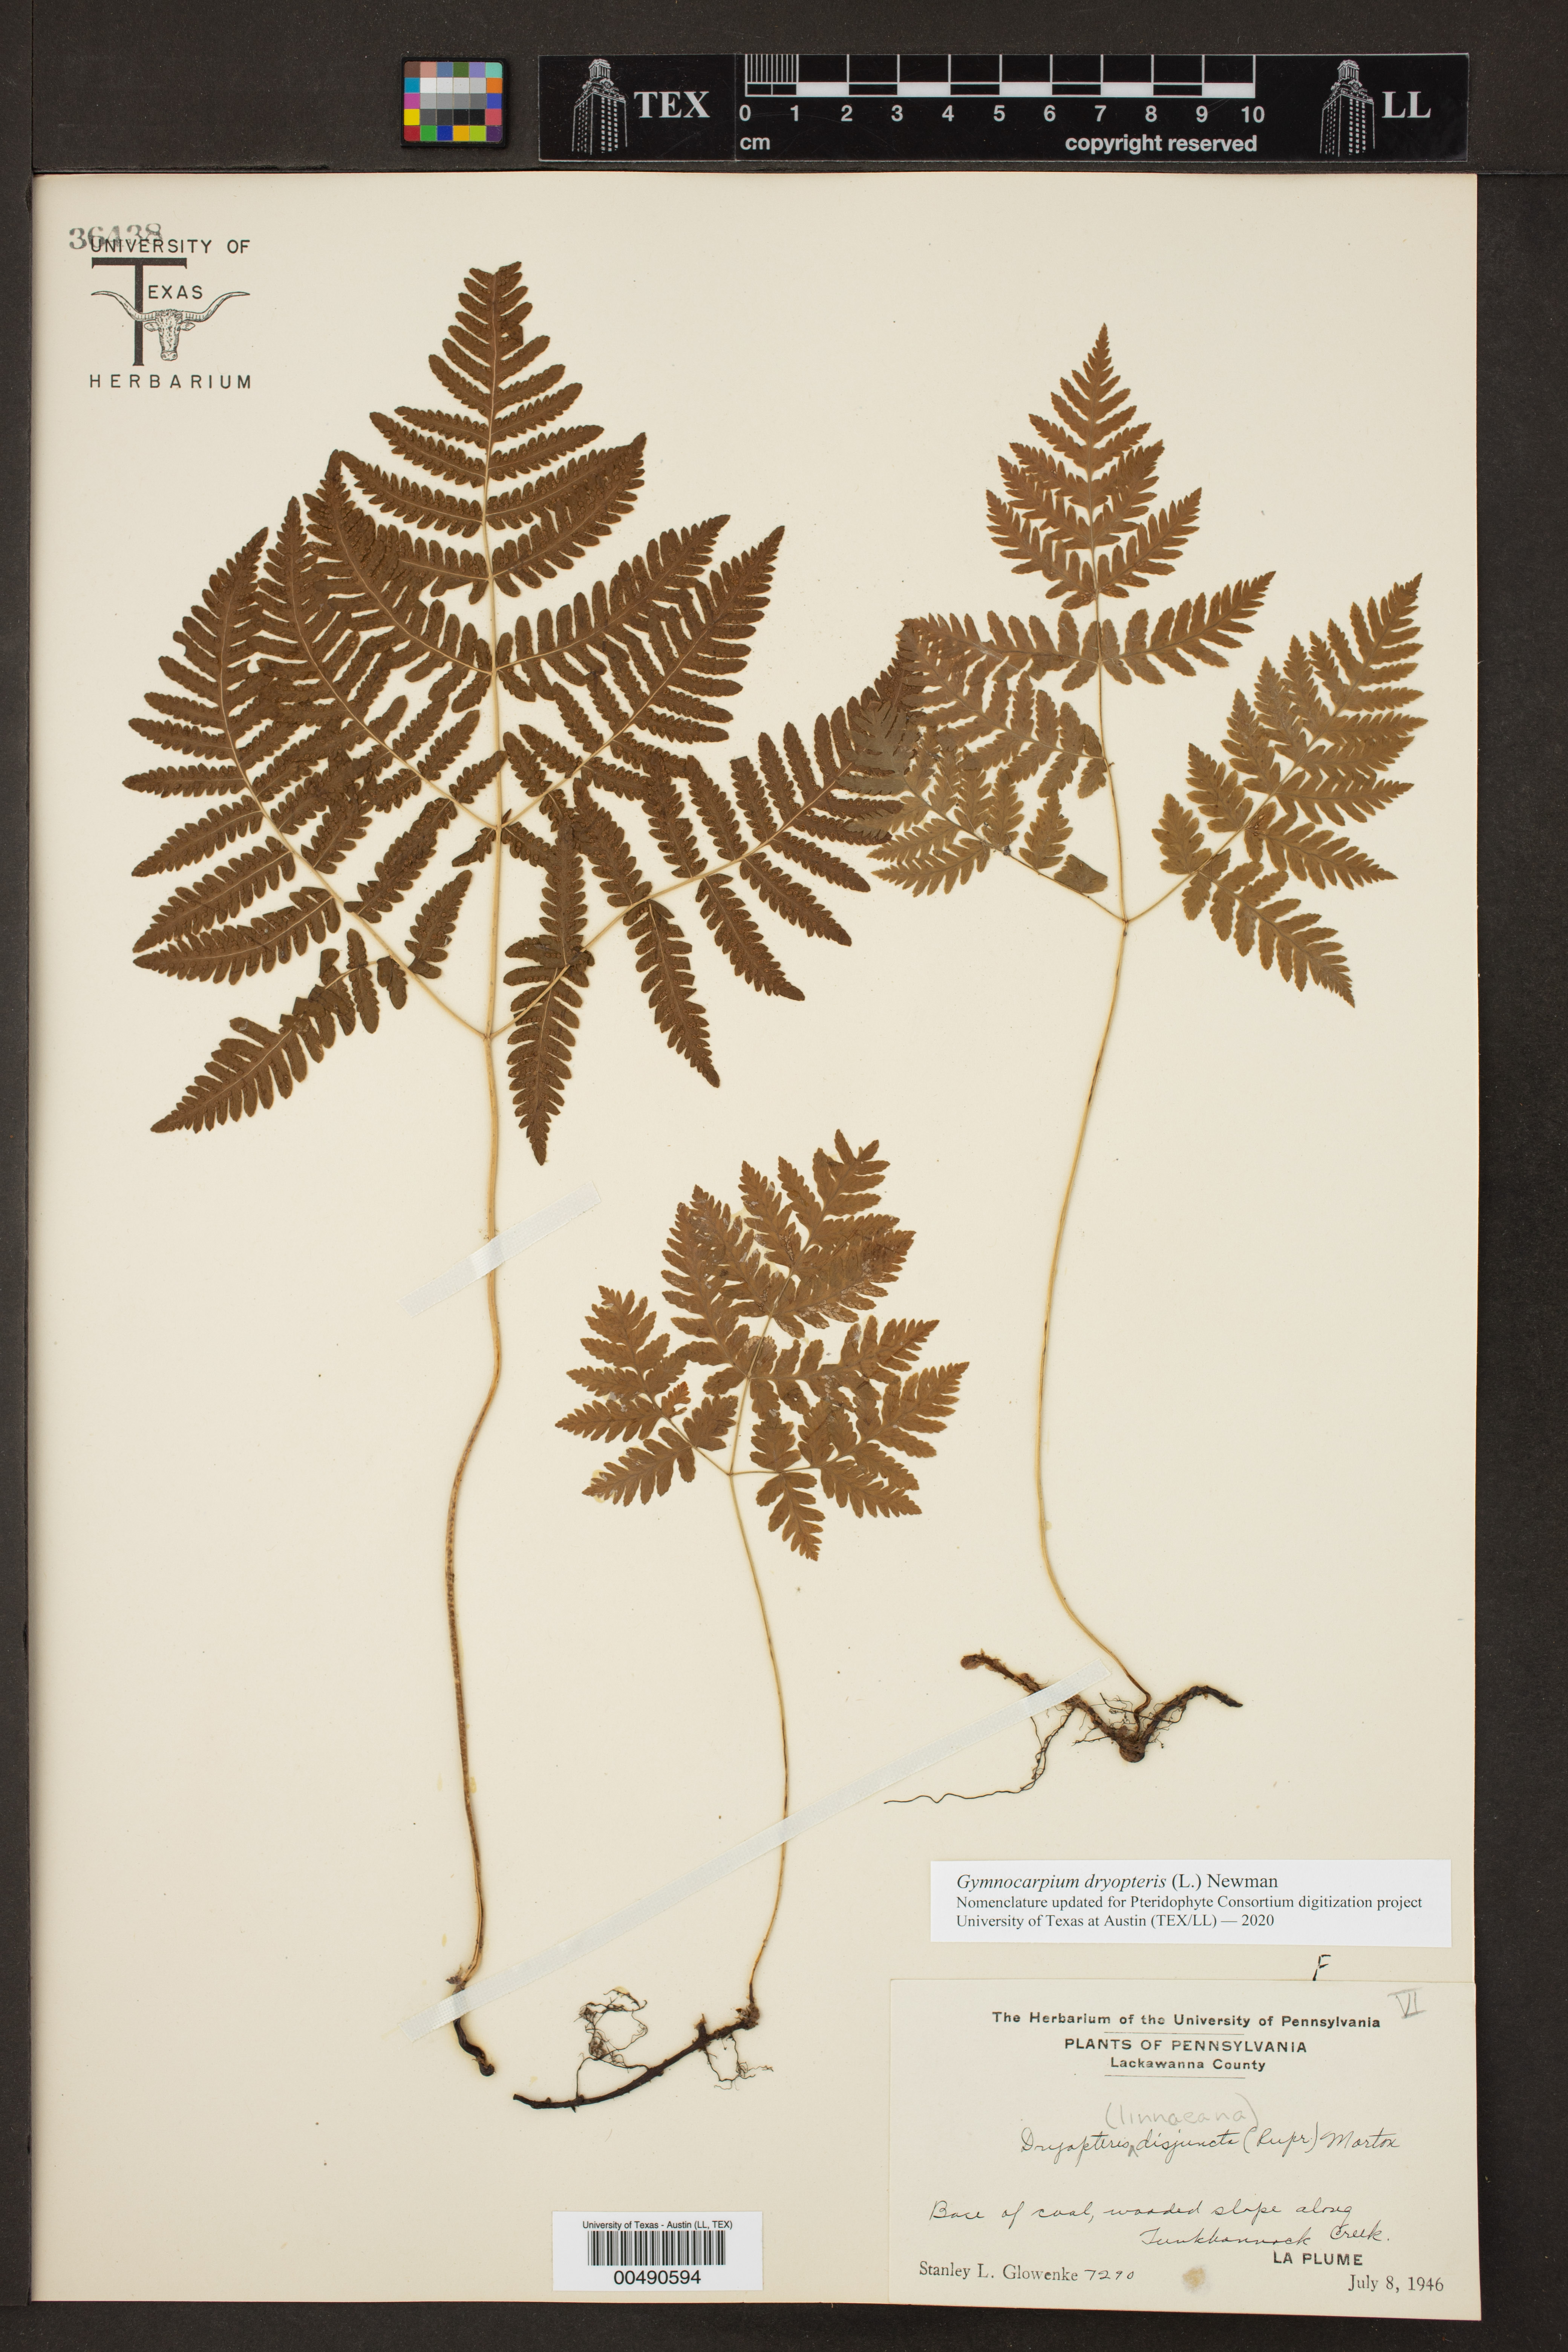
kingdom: Plantae
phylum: Tracheophyta
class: Polypodiopsida
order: Polypodiales
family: Cystopteridaceae
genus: Gymnocarpium
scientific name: Gymnocarpium dryopteris
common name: Oak fern
